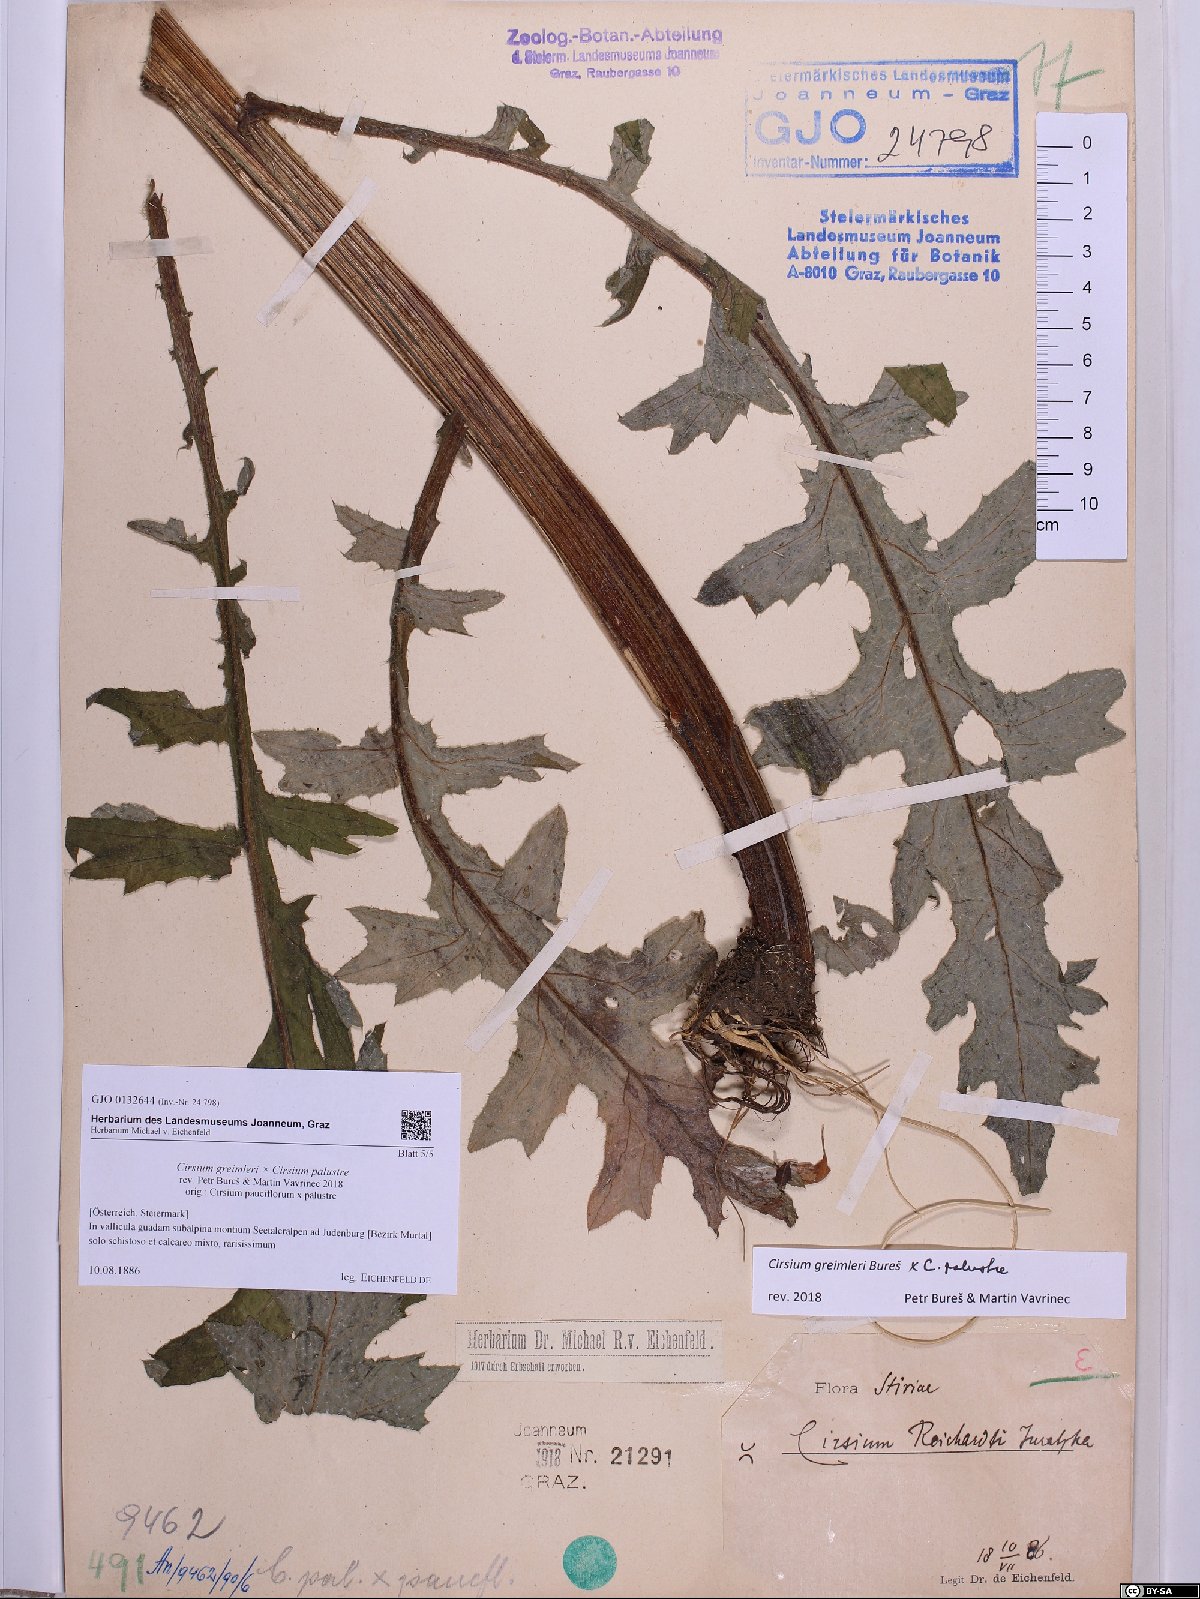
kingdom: Plantae
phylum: Tracheophyta
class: Magnoliopsida
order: Asterales
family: Asteraceae
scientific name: Asteraceae
